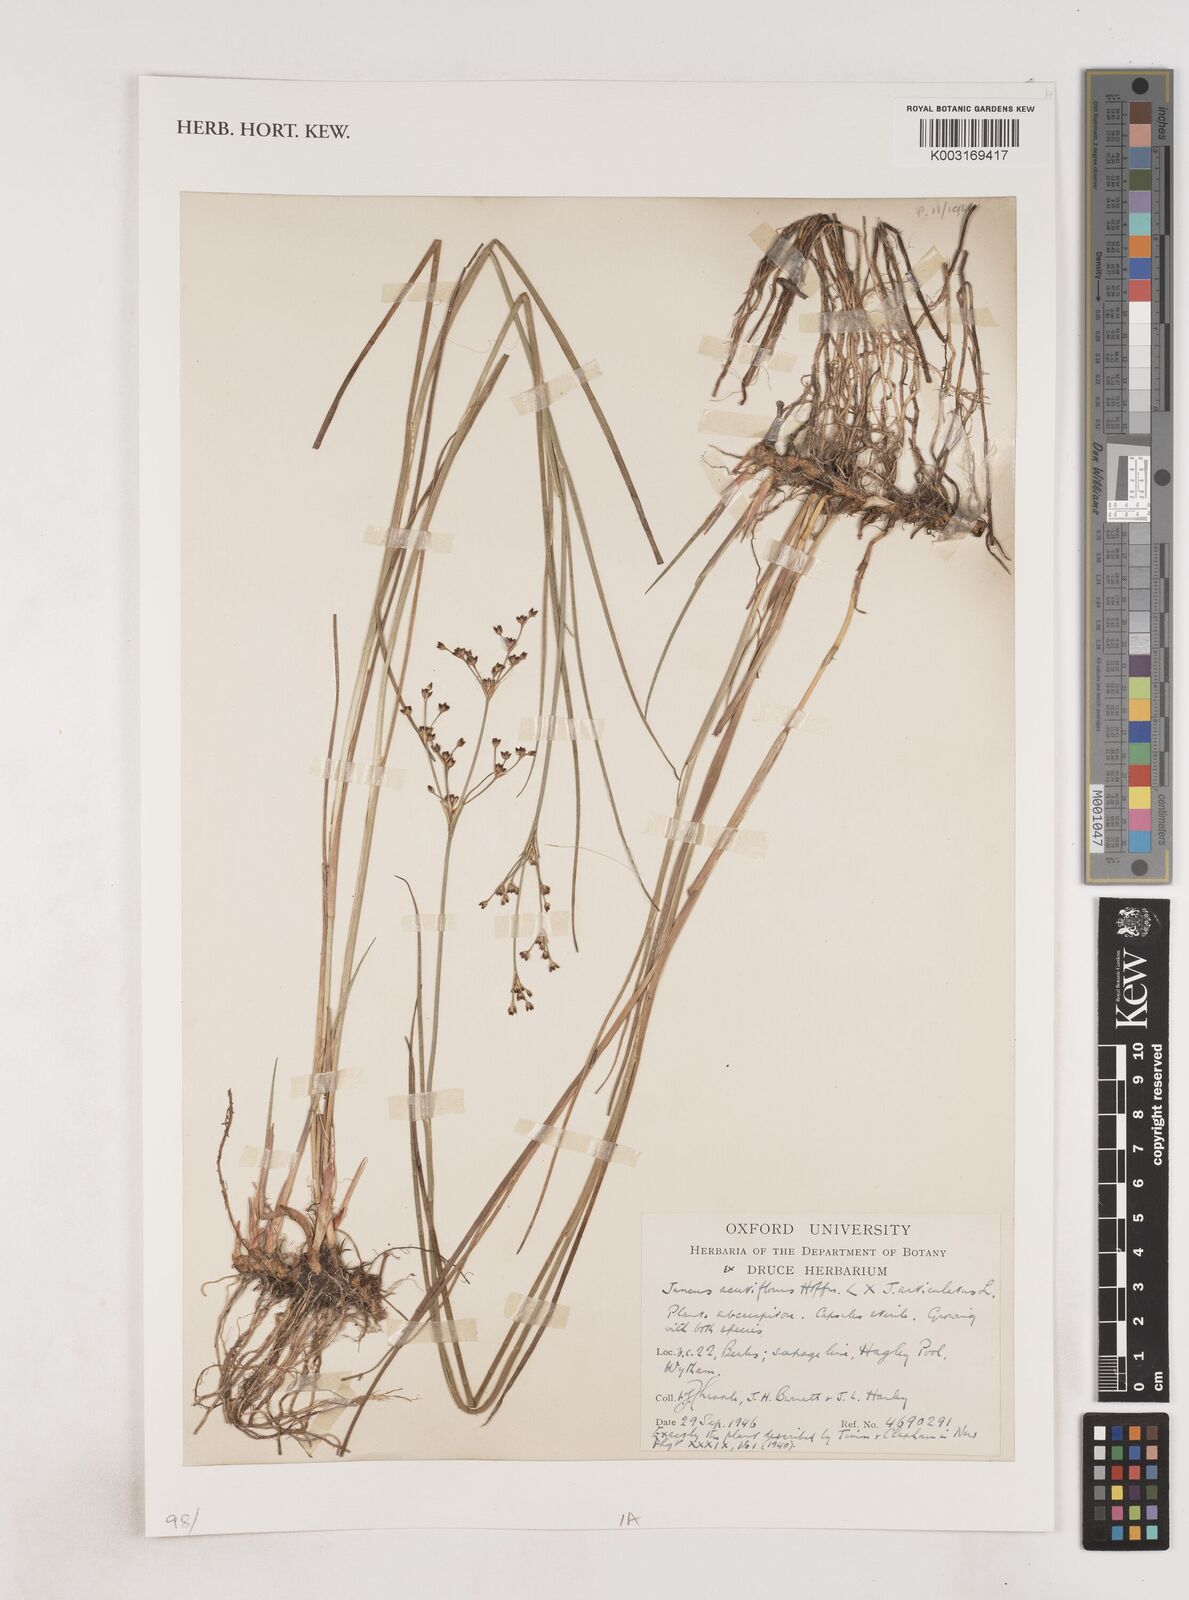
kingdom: Plantae
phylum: Tracheophyta
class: Liliopsida
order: Poales
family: Juncaceae
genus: Juncus
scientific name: Juncus acutiflorus
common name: Sharp-flowered rush
